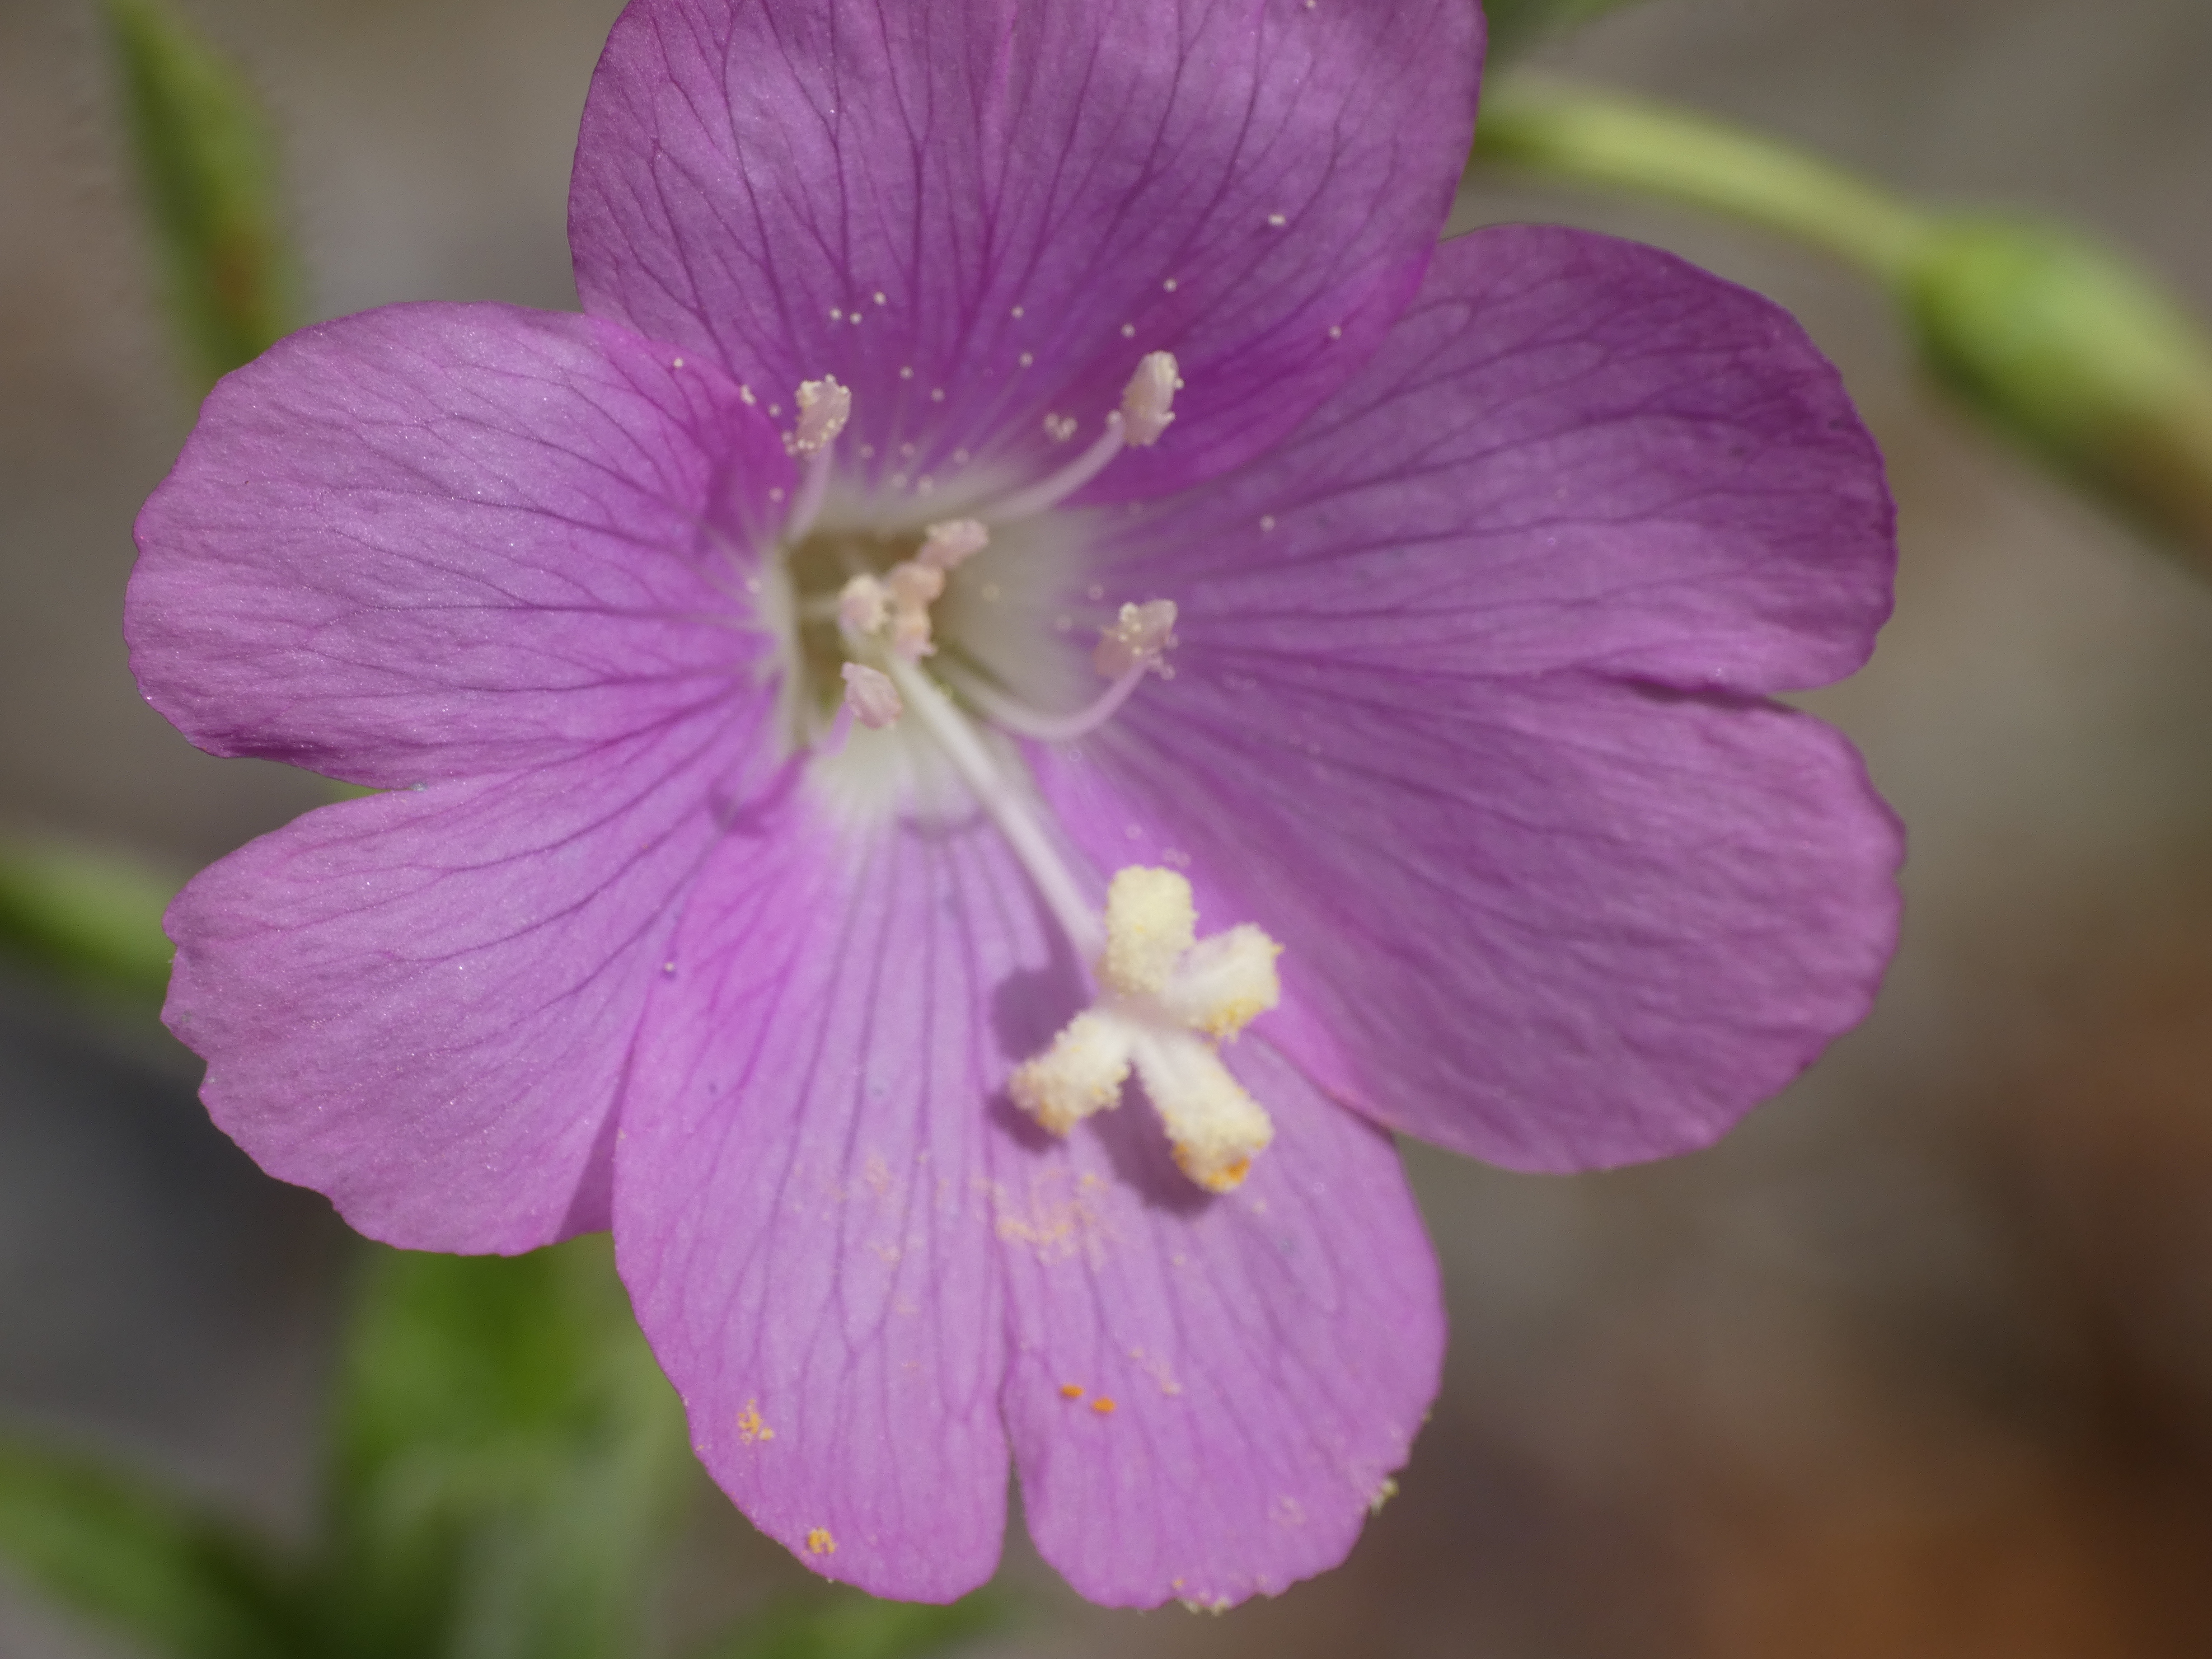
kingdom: Plantae
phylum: Tracheophyta
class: Magnoliopsida
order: Myrtales
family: Onagraceae
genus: Epilobium
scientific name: Epilobium hirsutum
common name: Lådden dueurt
